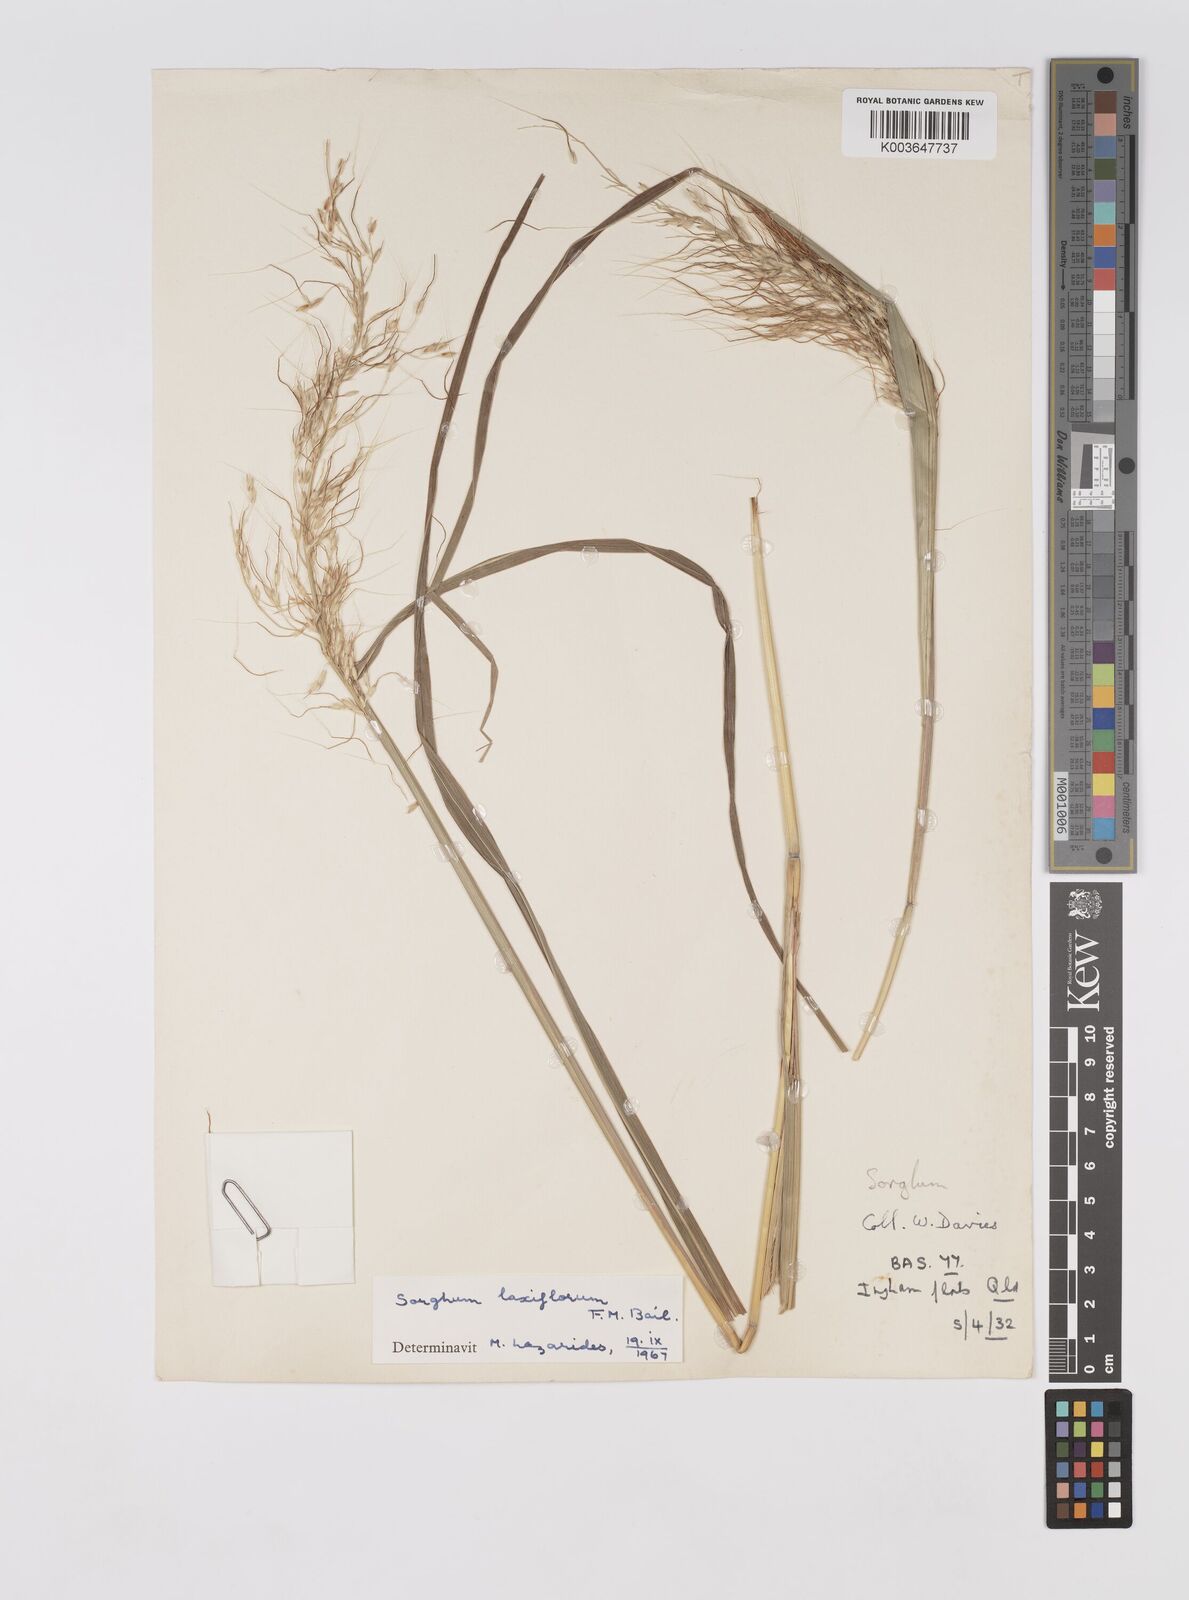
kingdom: Plantae
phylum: Tracheophyta
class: Liliopsida
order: Poales
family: Poaceae
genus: Sorghum
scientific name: Sorghum laxiflorum
